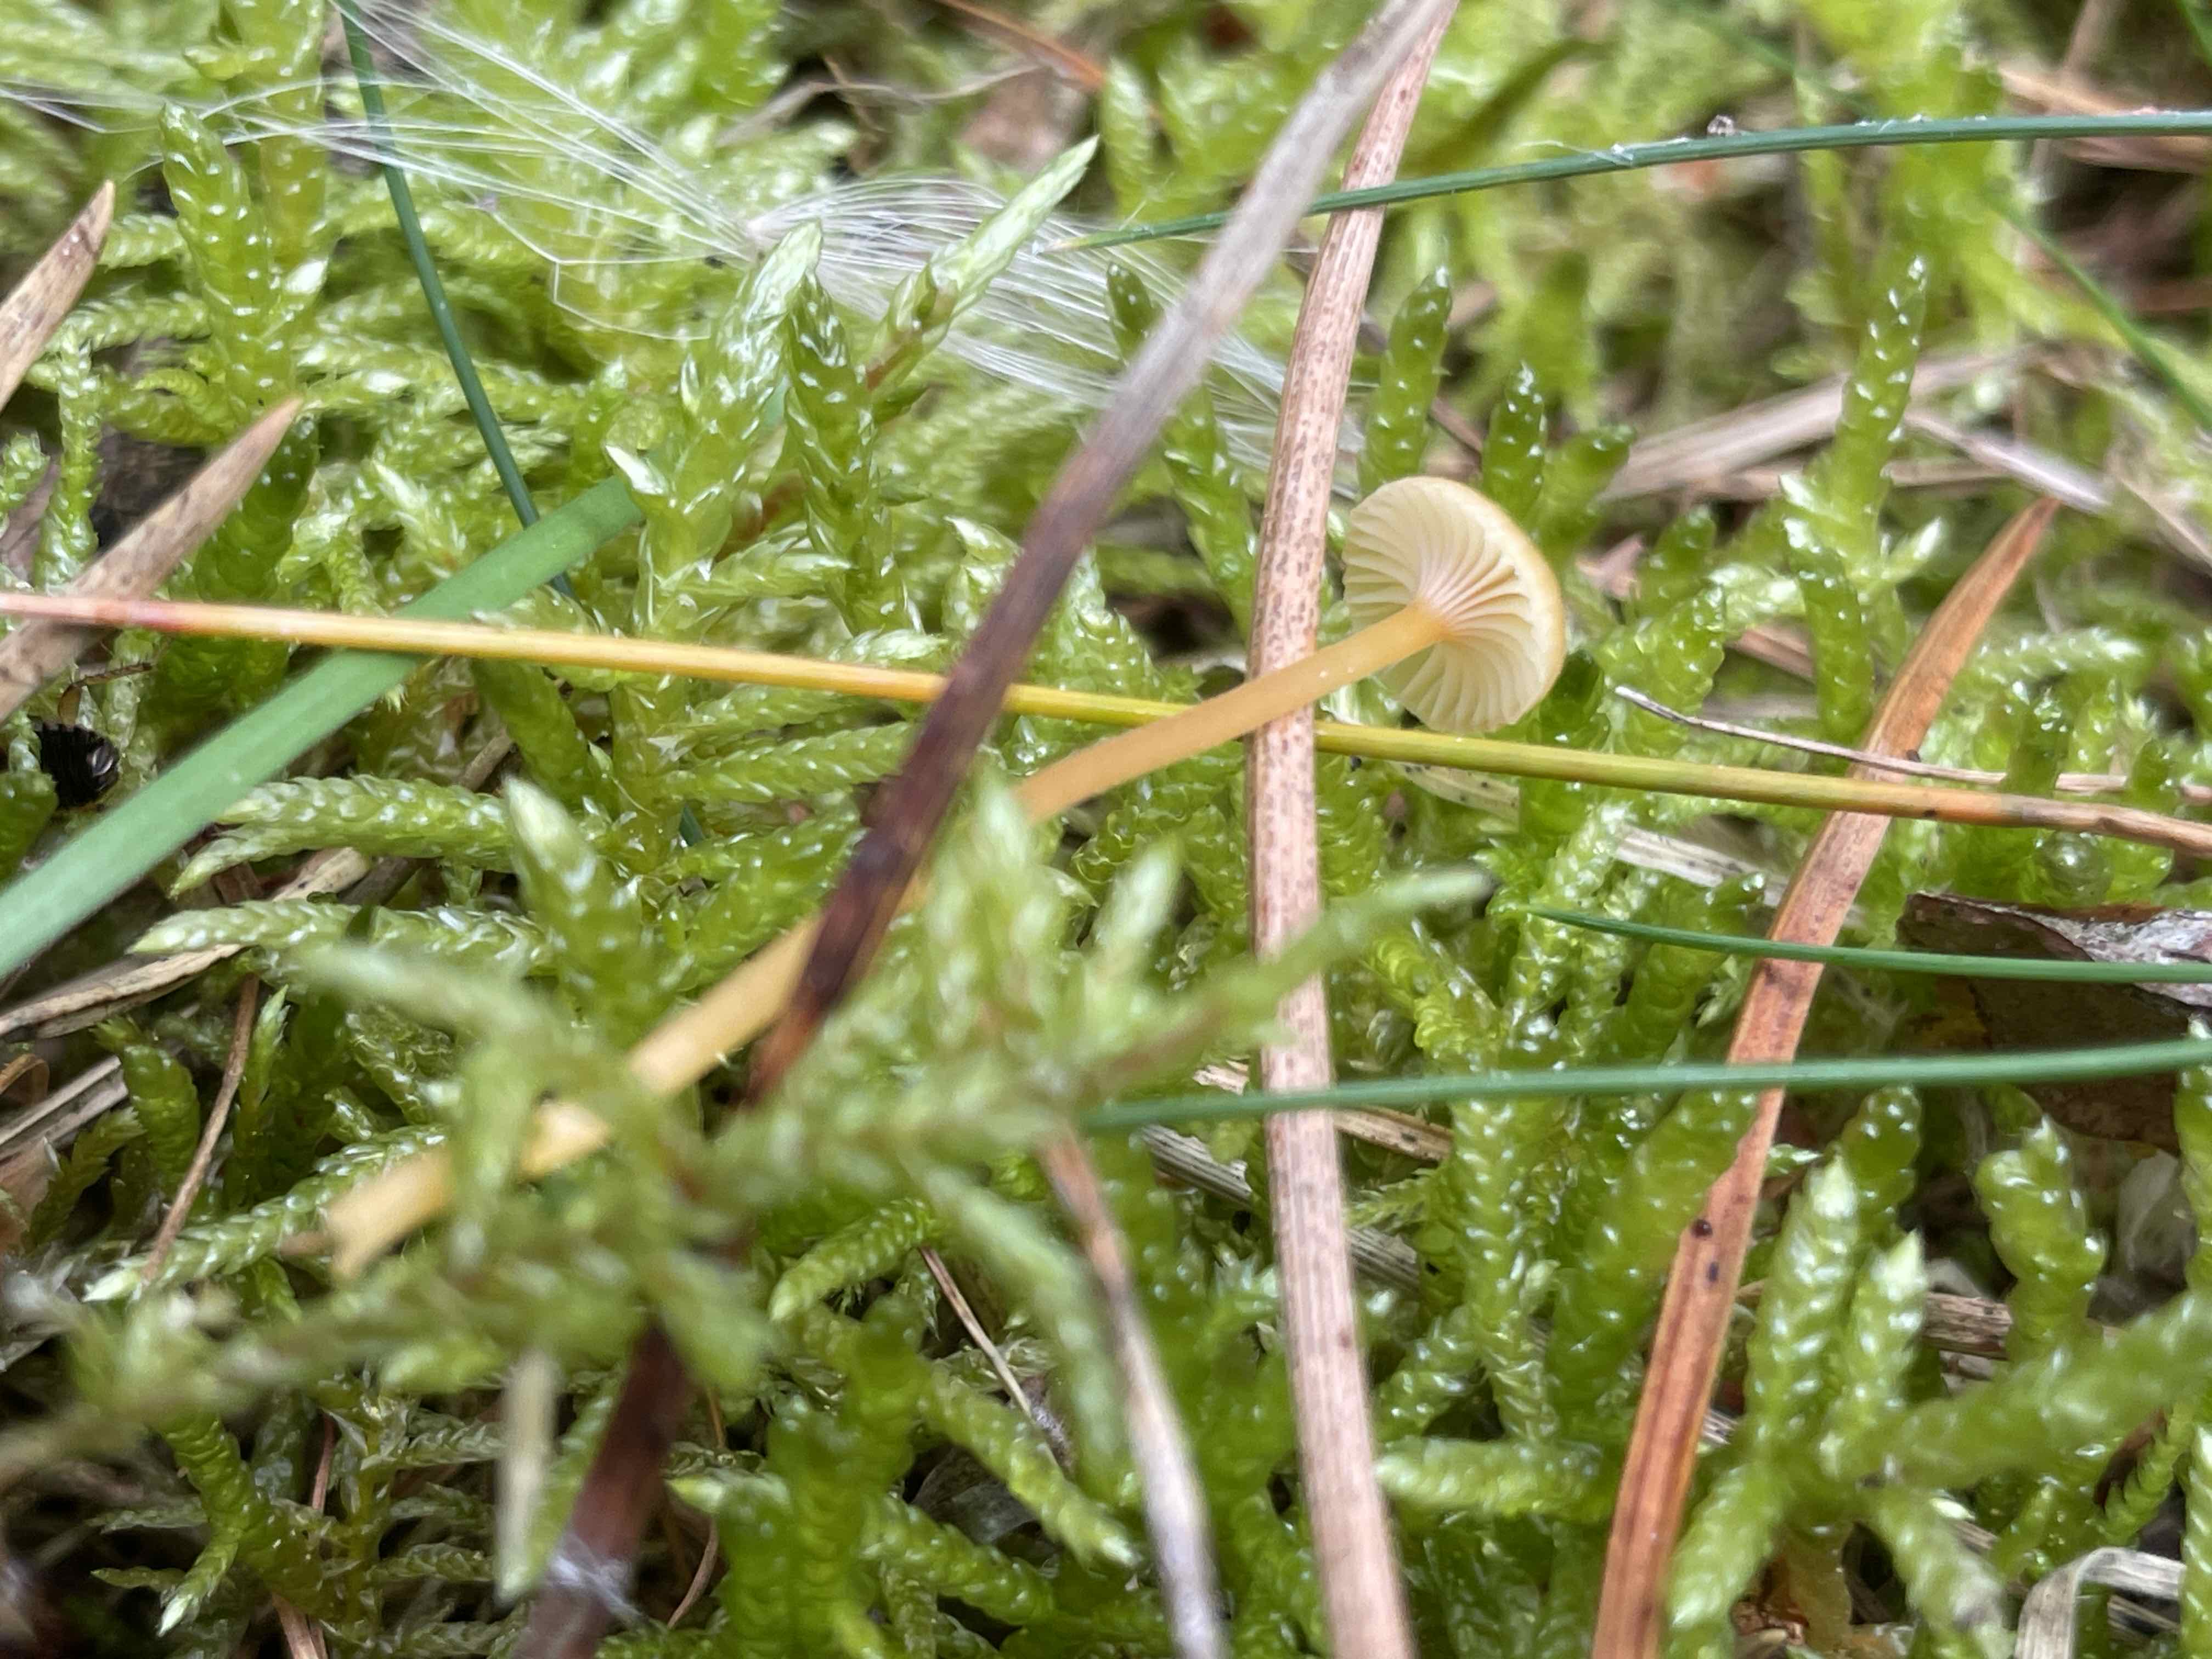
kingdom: Fungi
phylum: Basidiomycota
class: Agaricomycetes
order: Hymenochaetales
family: Rickenellaceae
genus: Rickenella
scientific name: Rickenella fibula
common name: orange mosnavlehat
